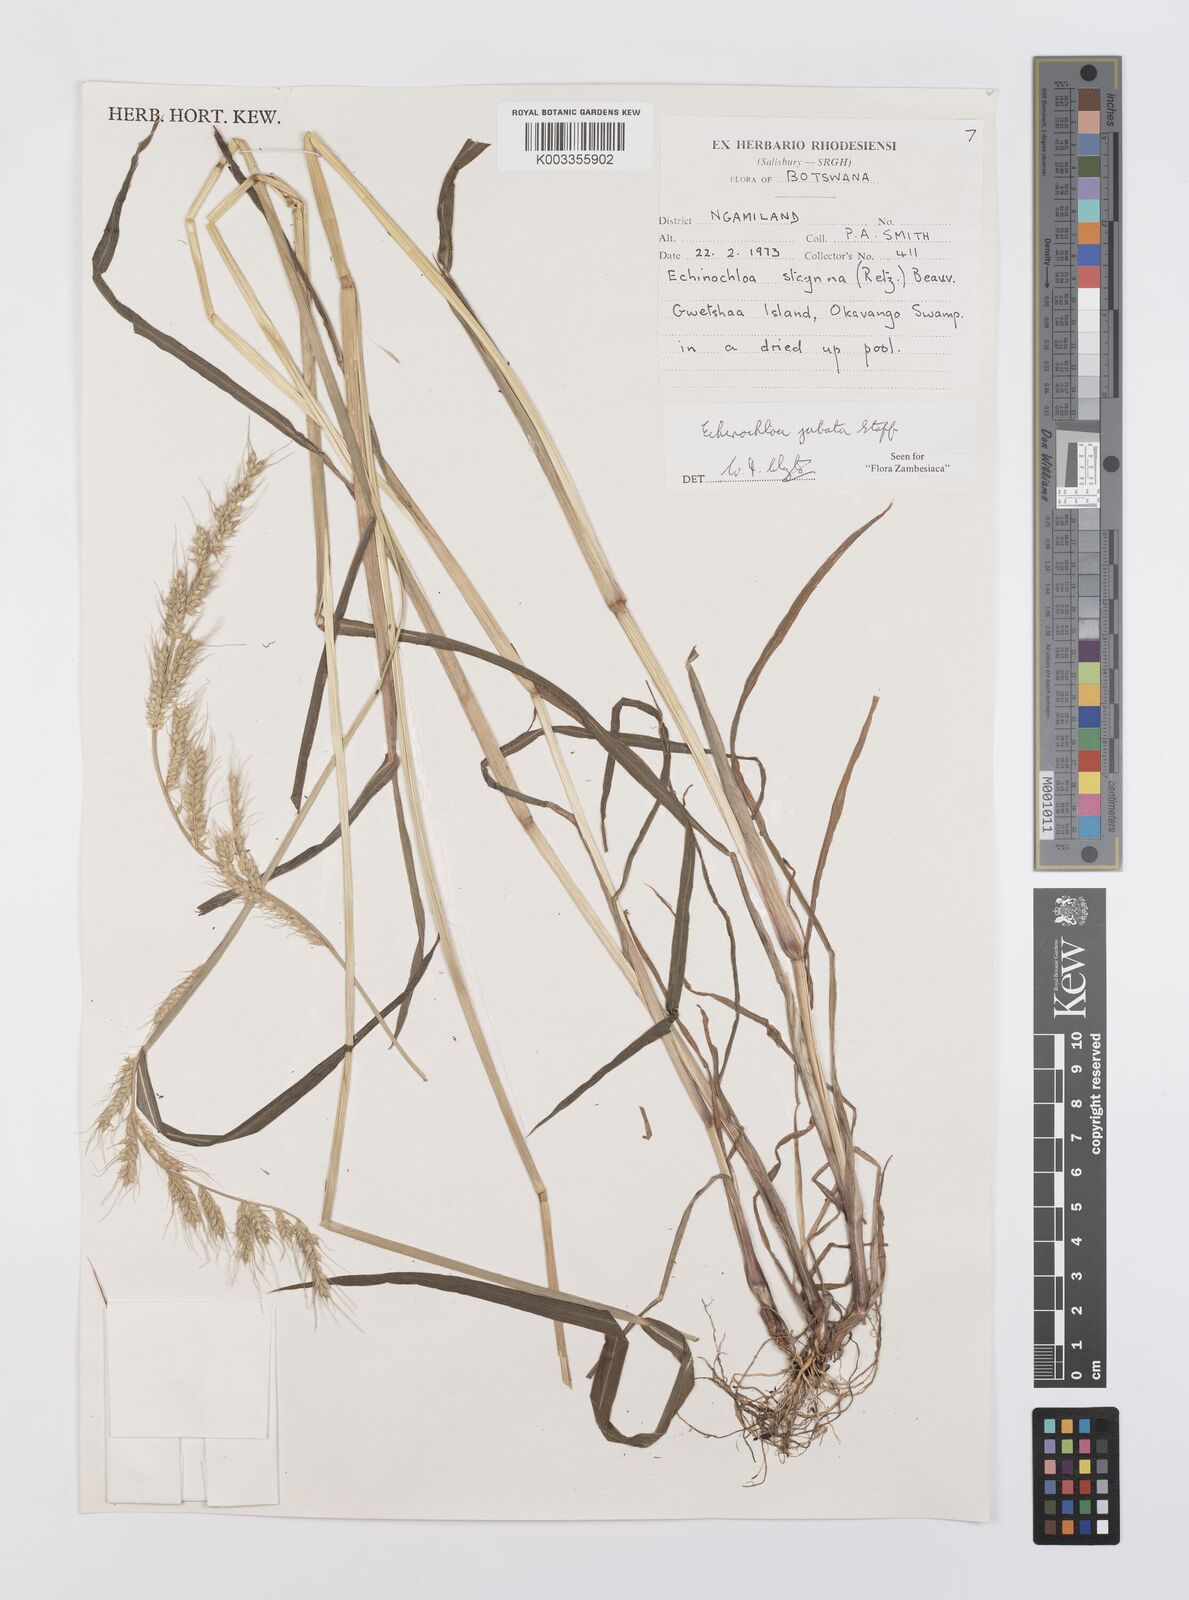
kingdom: Plantae
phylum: Tracheophyta
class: Liliopsida
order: Poales
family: Poaceae
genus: Echinochloa
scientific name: Echinochloa jubata
